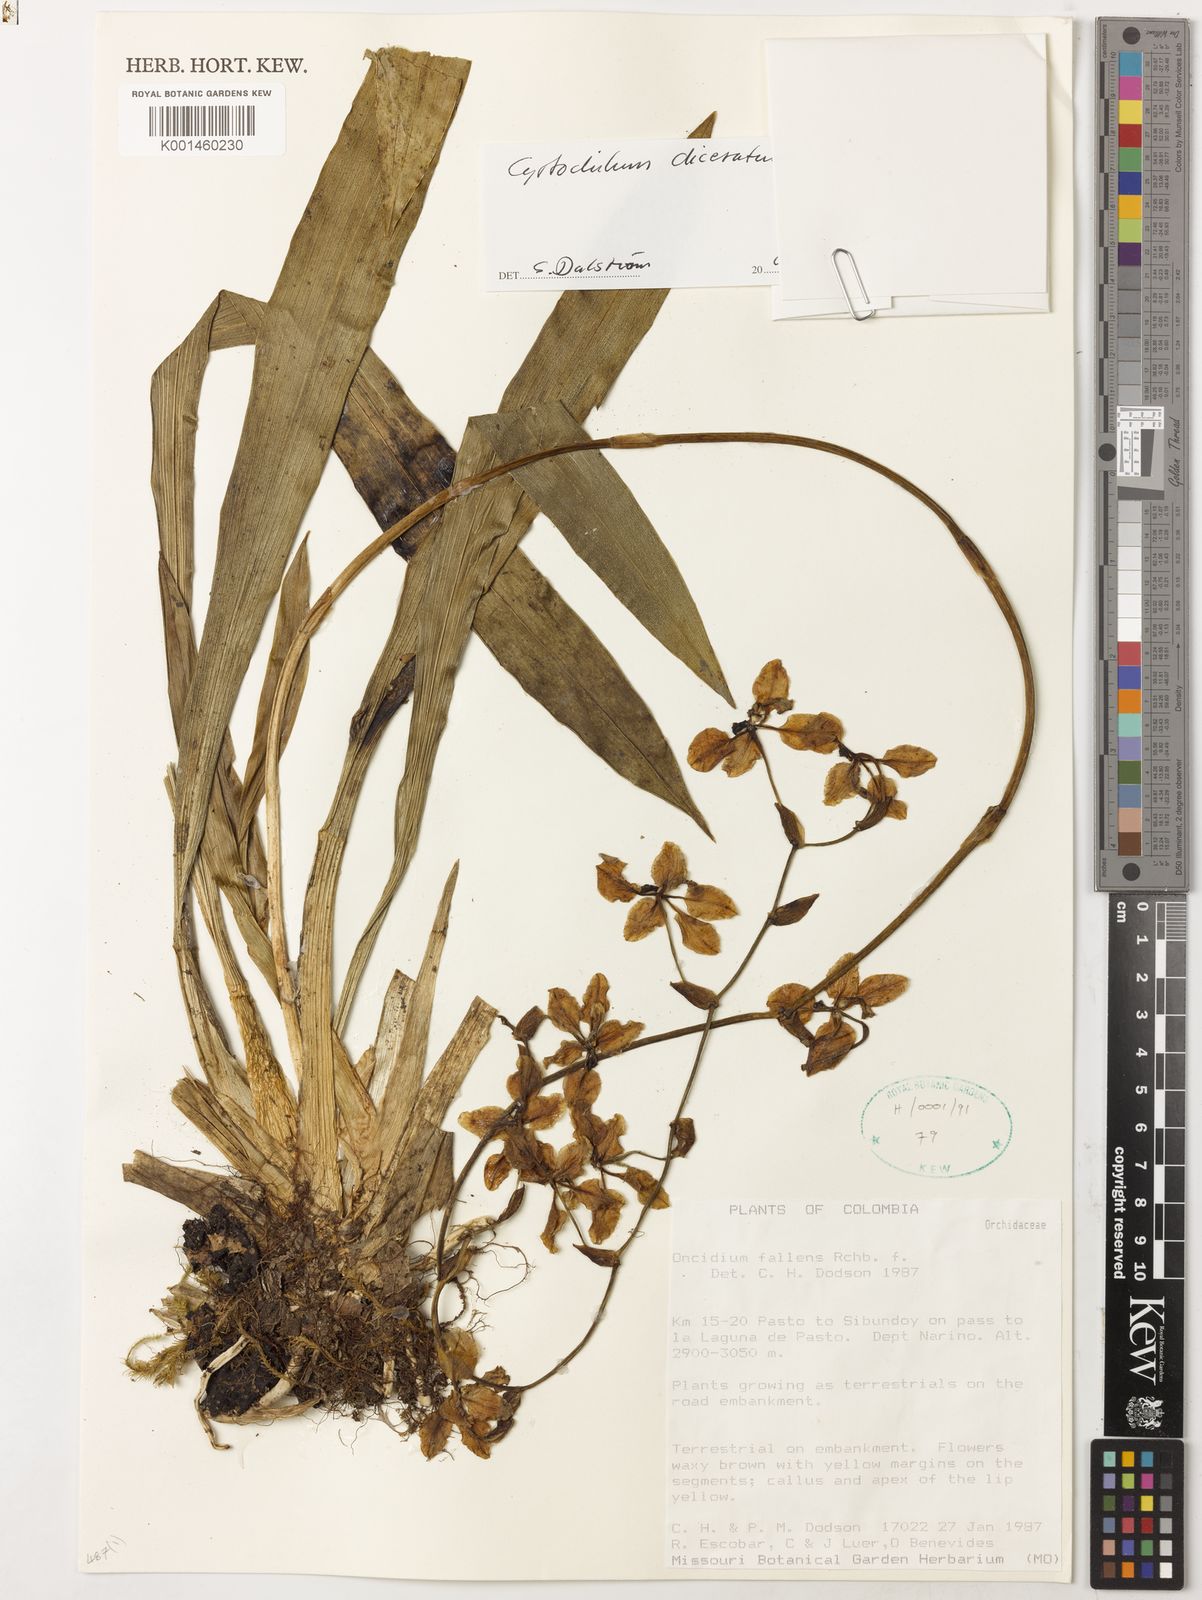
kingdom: Plantae
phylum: Tracheophyta
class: Liliopsida
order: Asparagales
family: Orchidaceae
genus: Cyrtochilum
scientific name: Cyrtochilum diceratum
